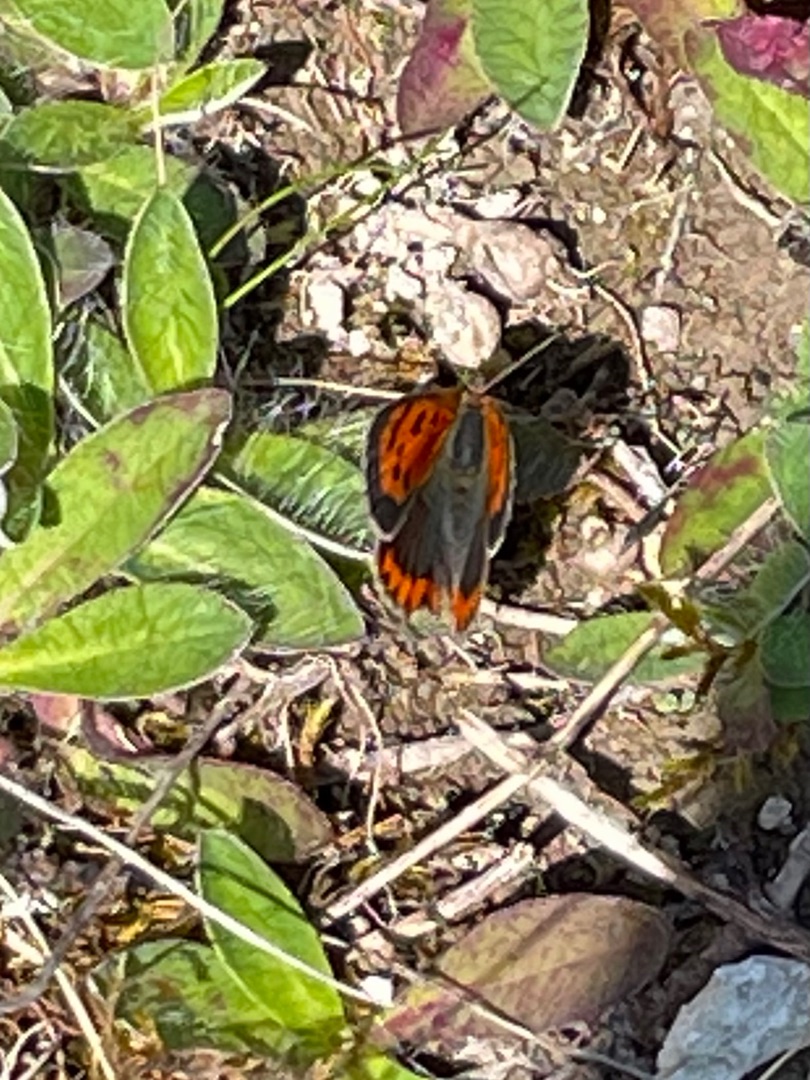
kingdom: Animalia
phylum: Arthropoda
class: Insecta
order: Lepidoptera
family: Lycaenidae
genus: Lycaena
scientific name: Lycaena phlaeas
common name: Lille ildfugl
